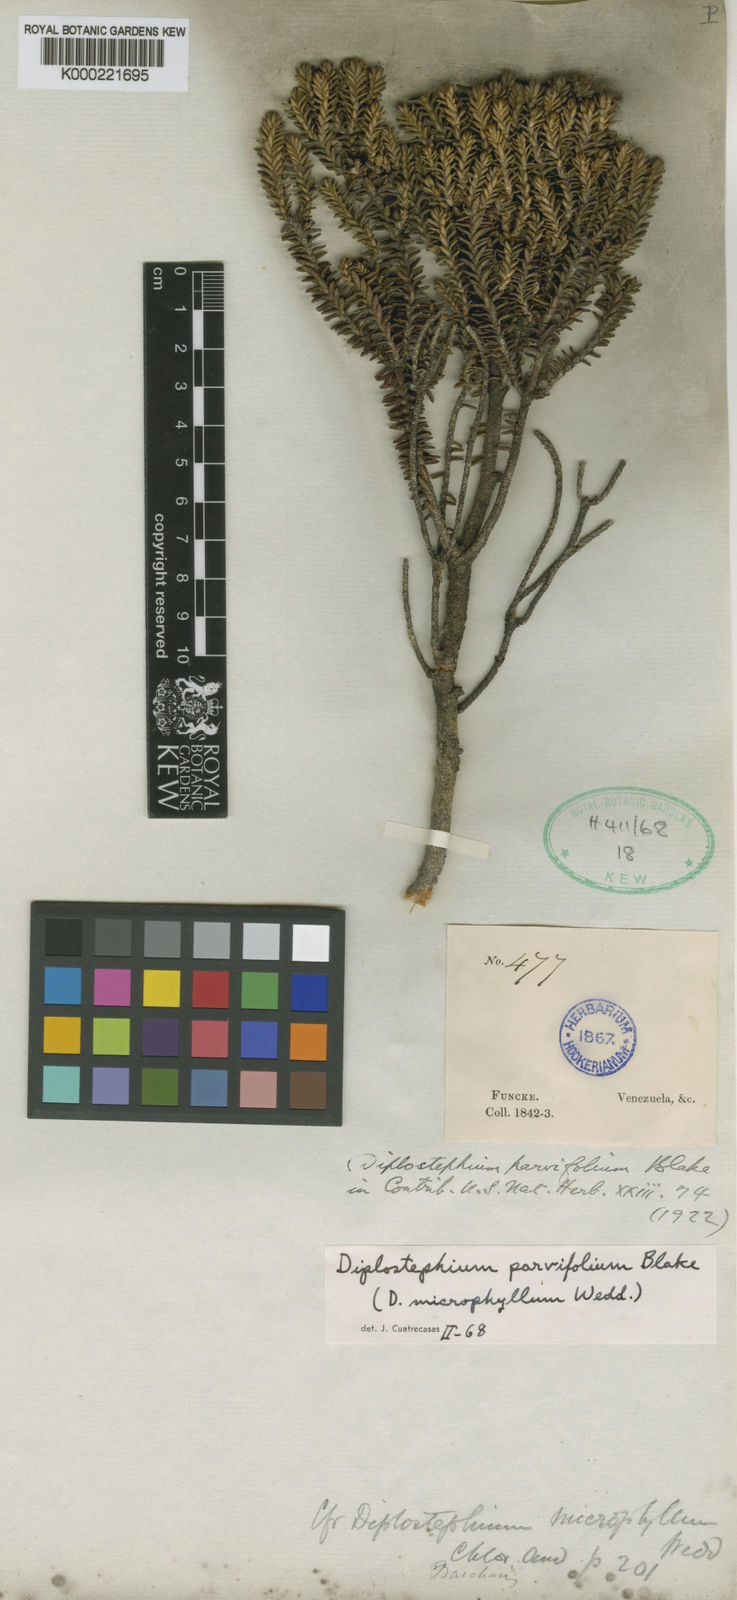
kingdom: Plantae
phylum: Tracheophyta
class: Magnoliopsida
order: Asterales
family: Asteraceae
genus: Linochilus
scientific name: Linochilus parvifolius
